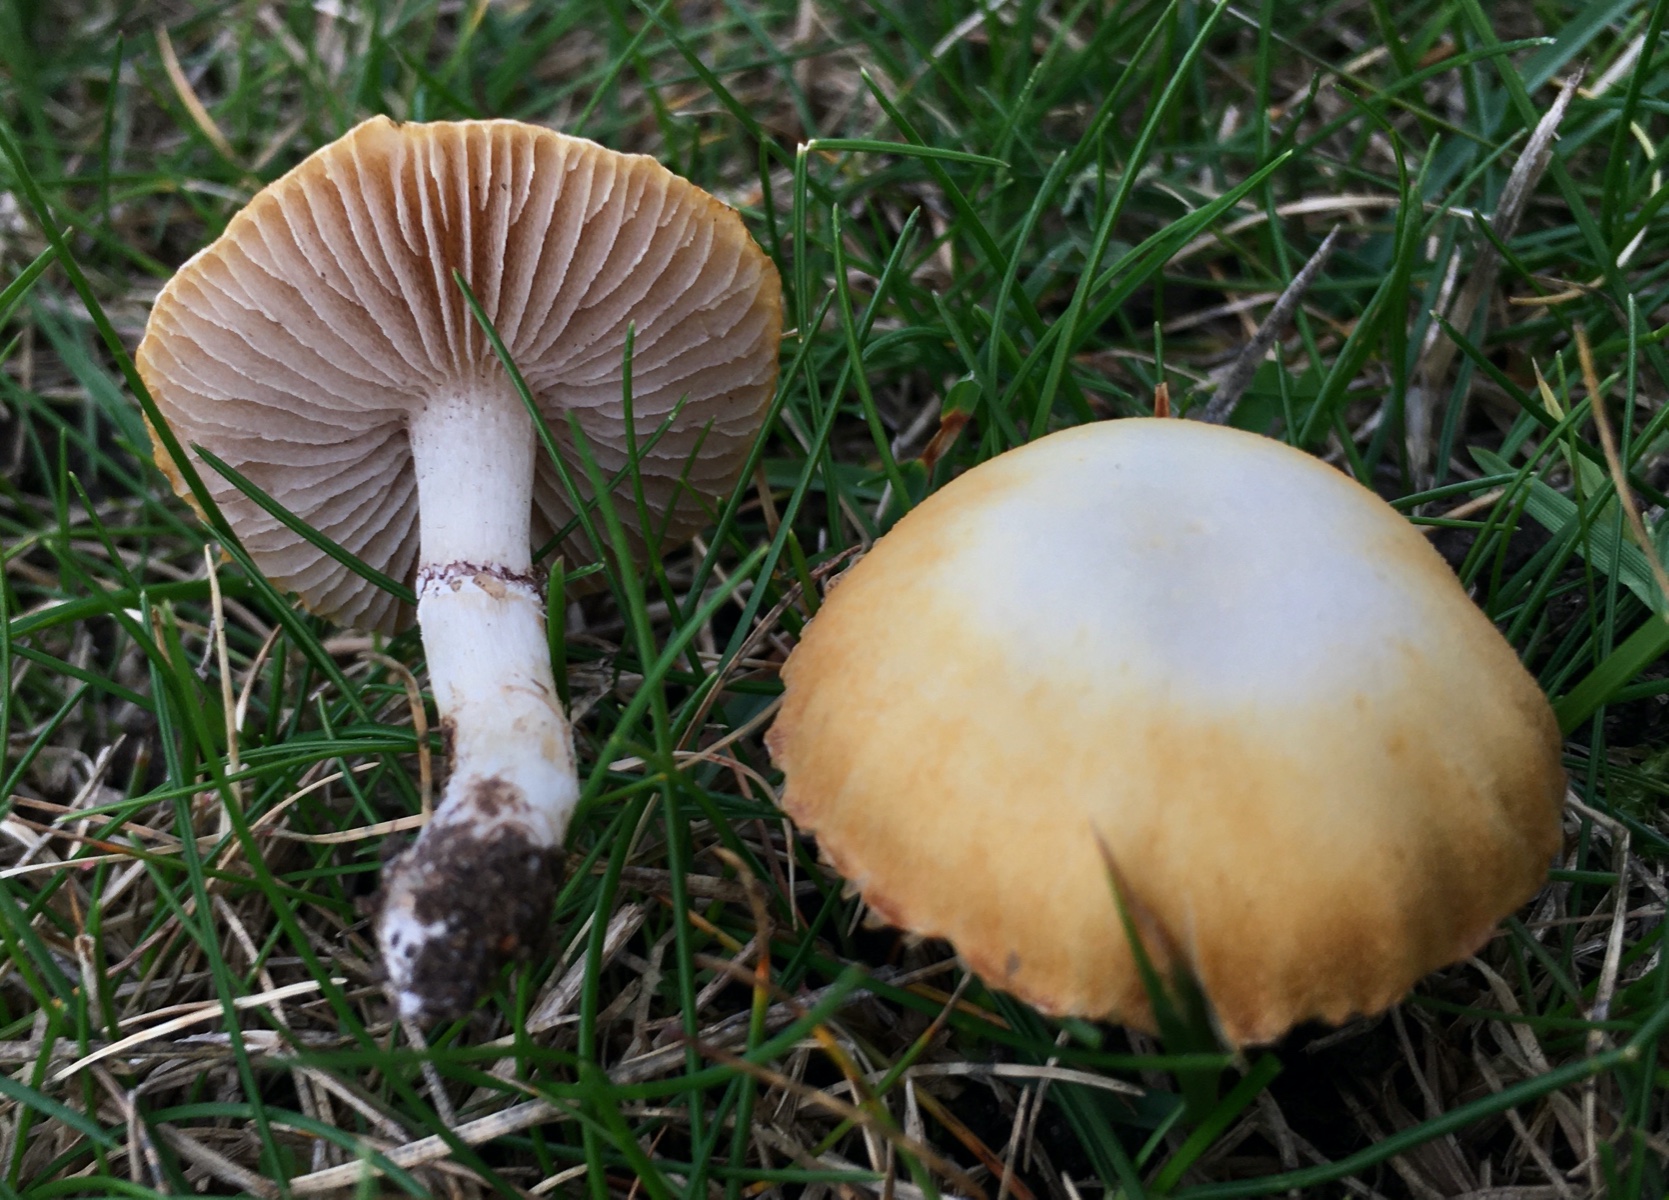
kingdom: Fungi
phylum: Basidiomycota
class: Agaricomycetes
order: Agaricales
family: Hymenogastraceae
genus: Psilocybe
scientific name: Psilocybe coronilla
